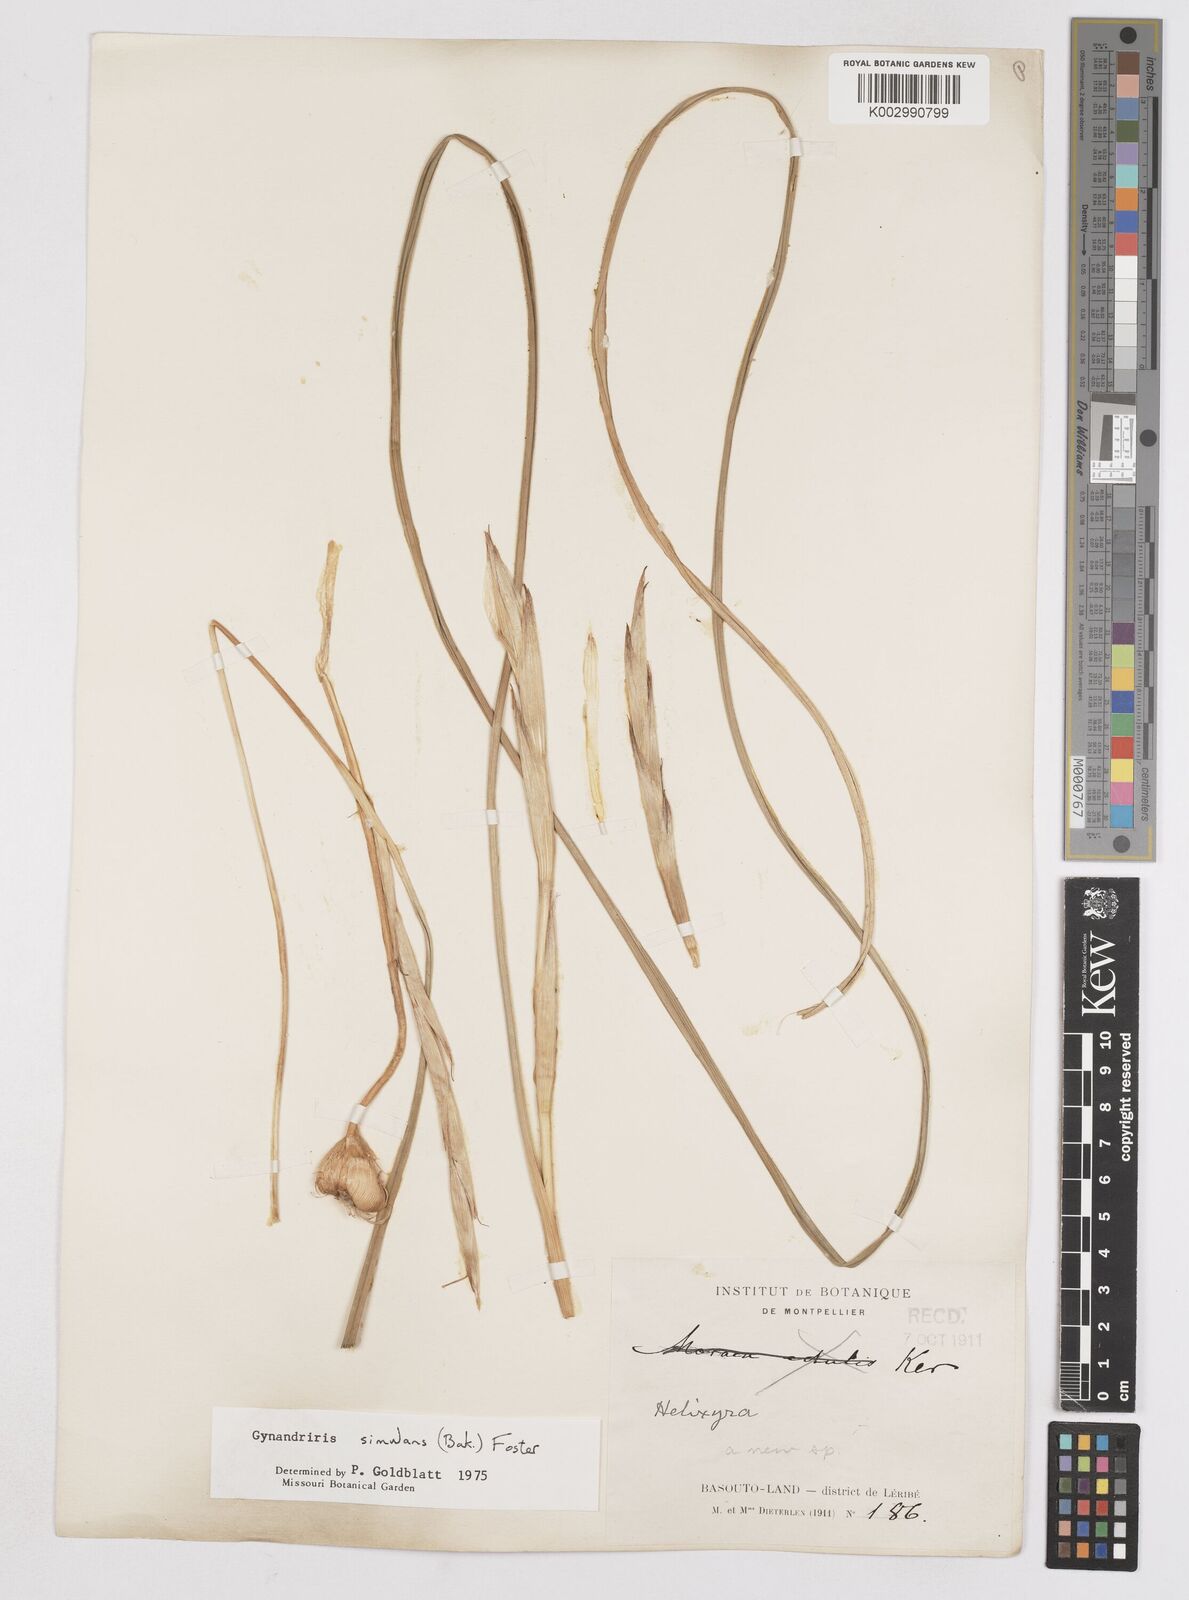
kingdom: Plantae
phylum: Tracheophyta
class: Liliopsida
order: Asparagales
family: Iridaceae
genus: Moraea
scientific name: Moraea simulans
